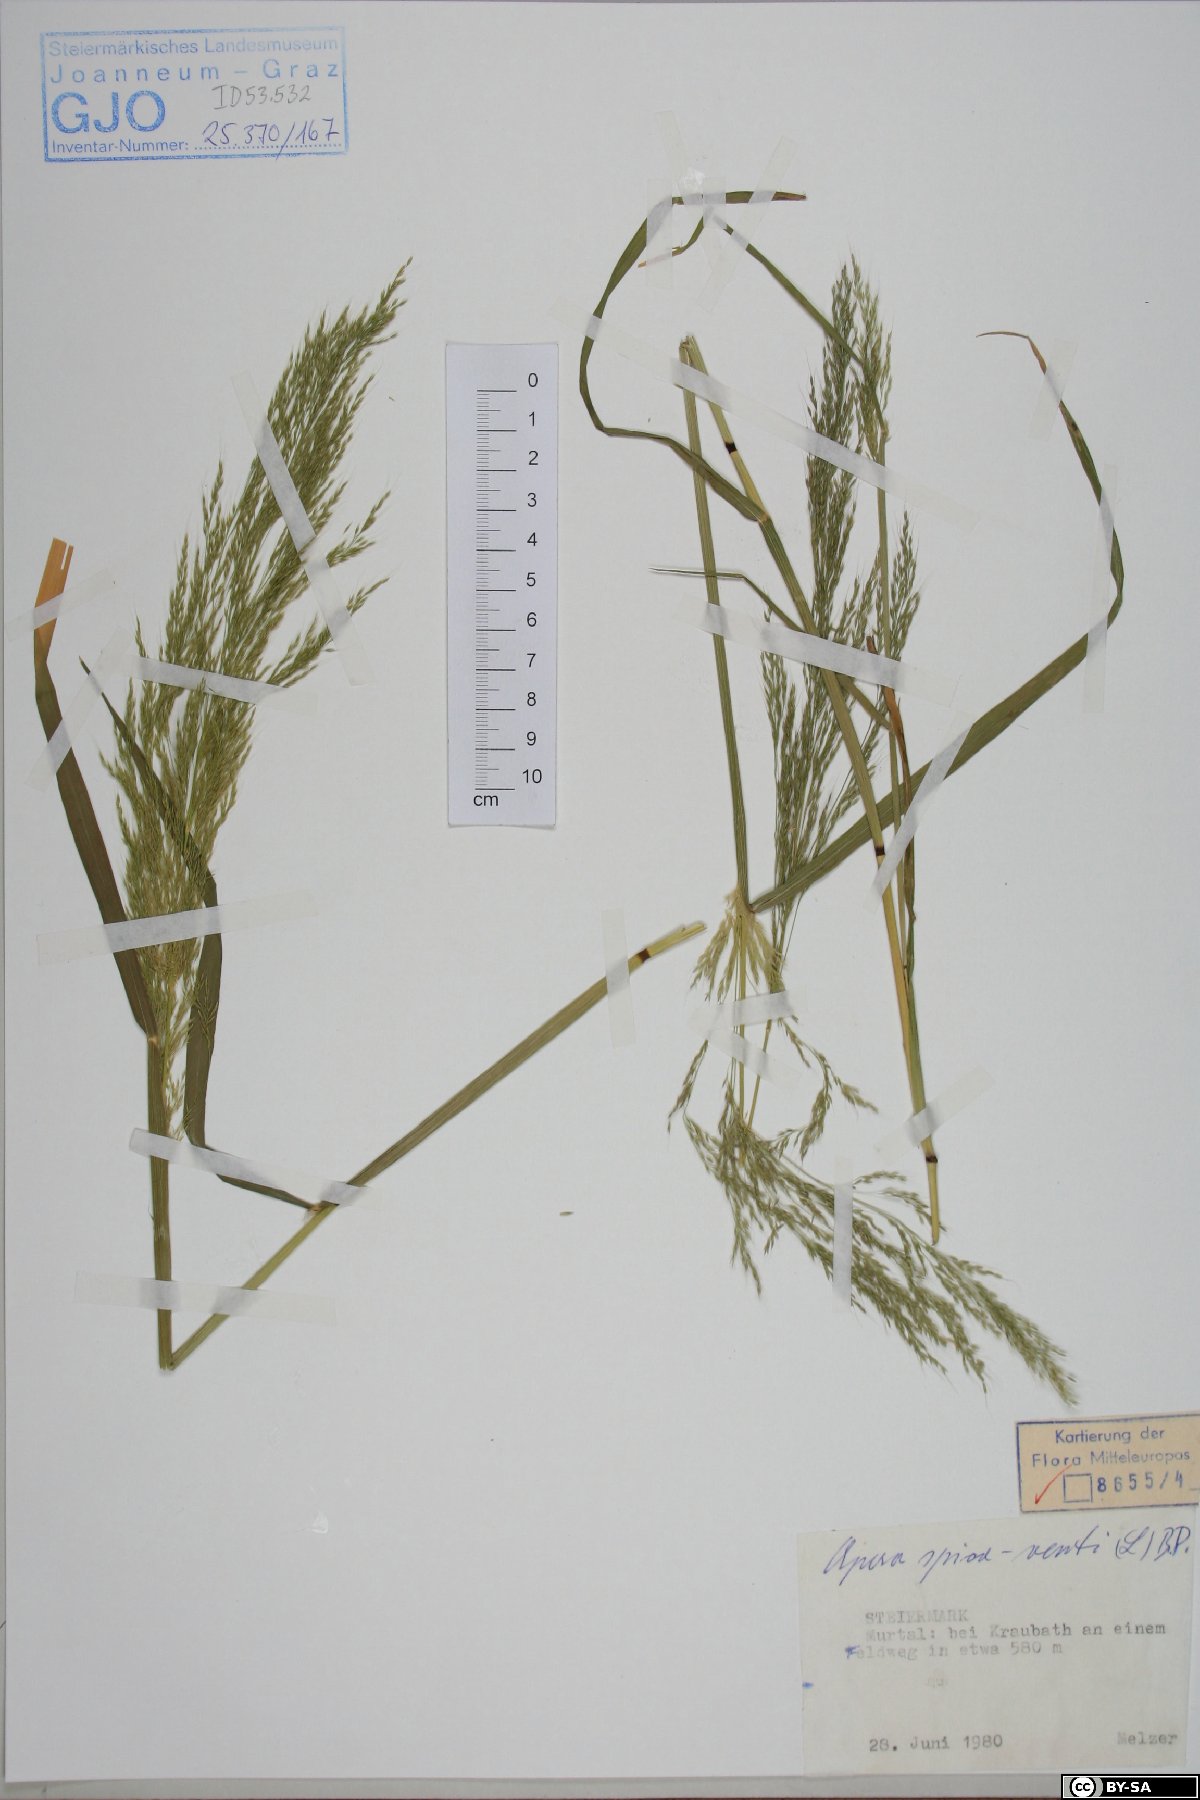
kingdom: Plantae
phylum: Tracheophyta
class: Liliopsida
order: Poales
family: Poaceae
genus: Apera
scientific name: Apera spica-venti
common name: Loose silky-bent
